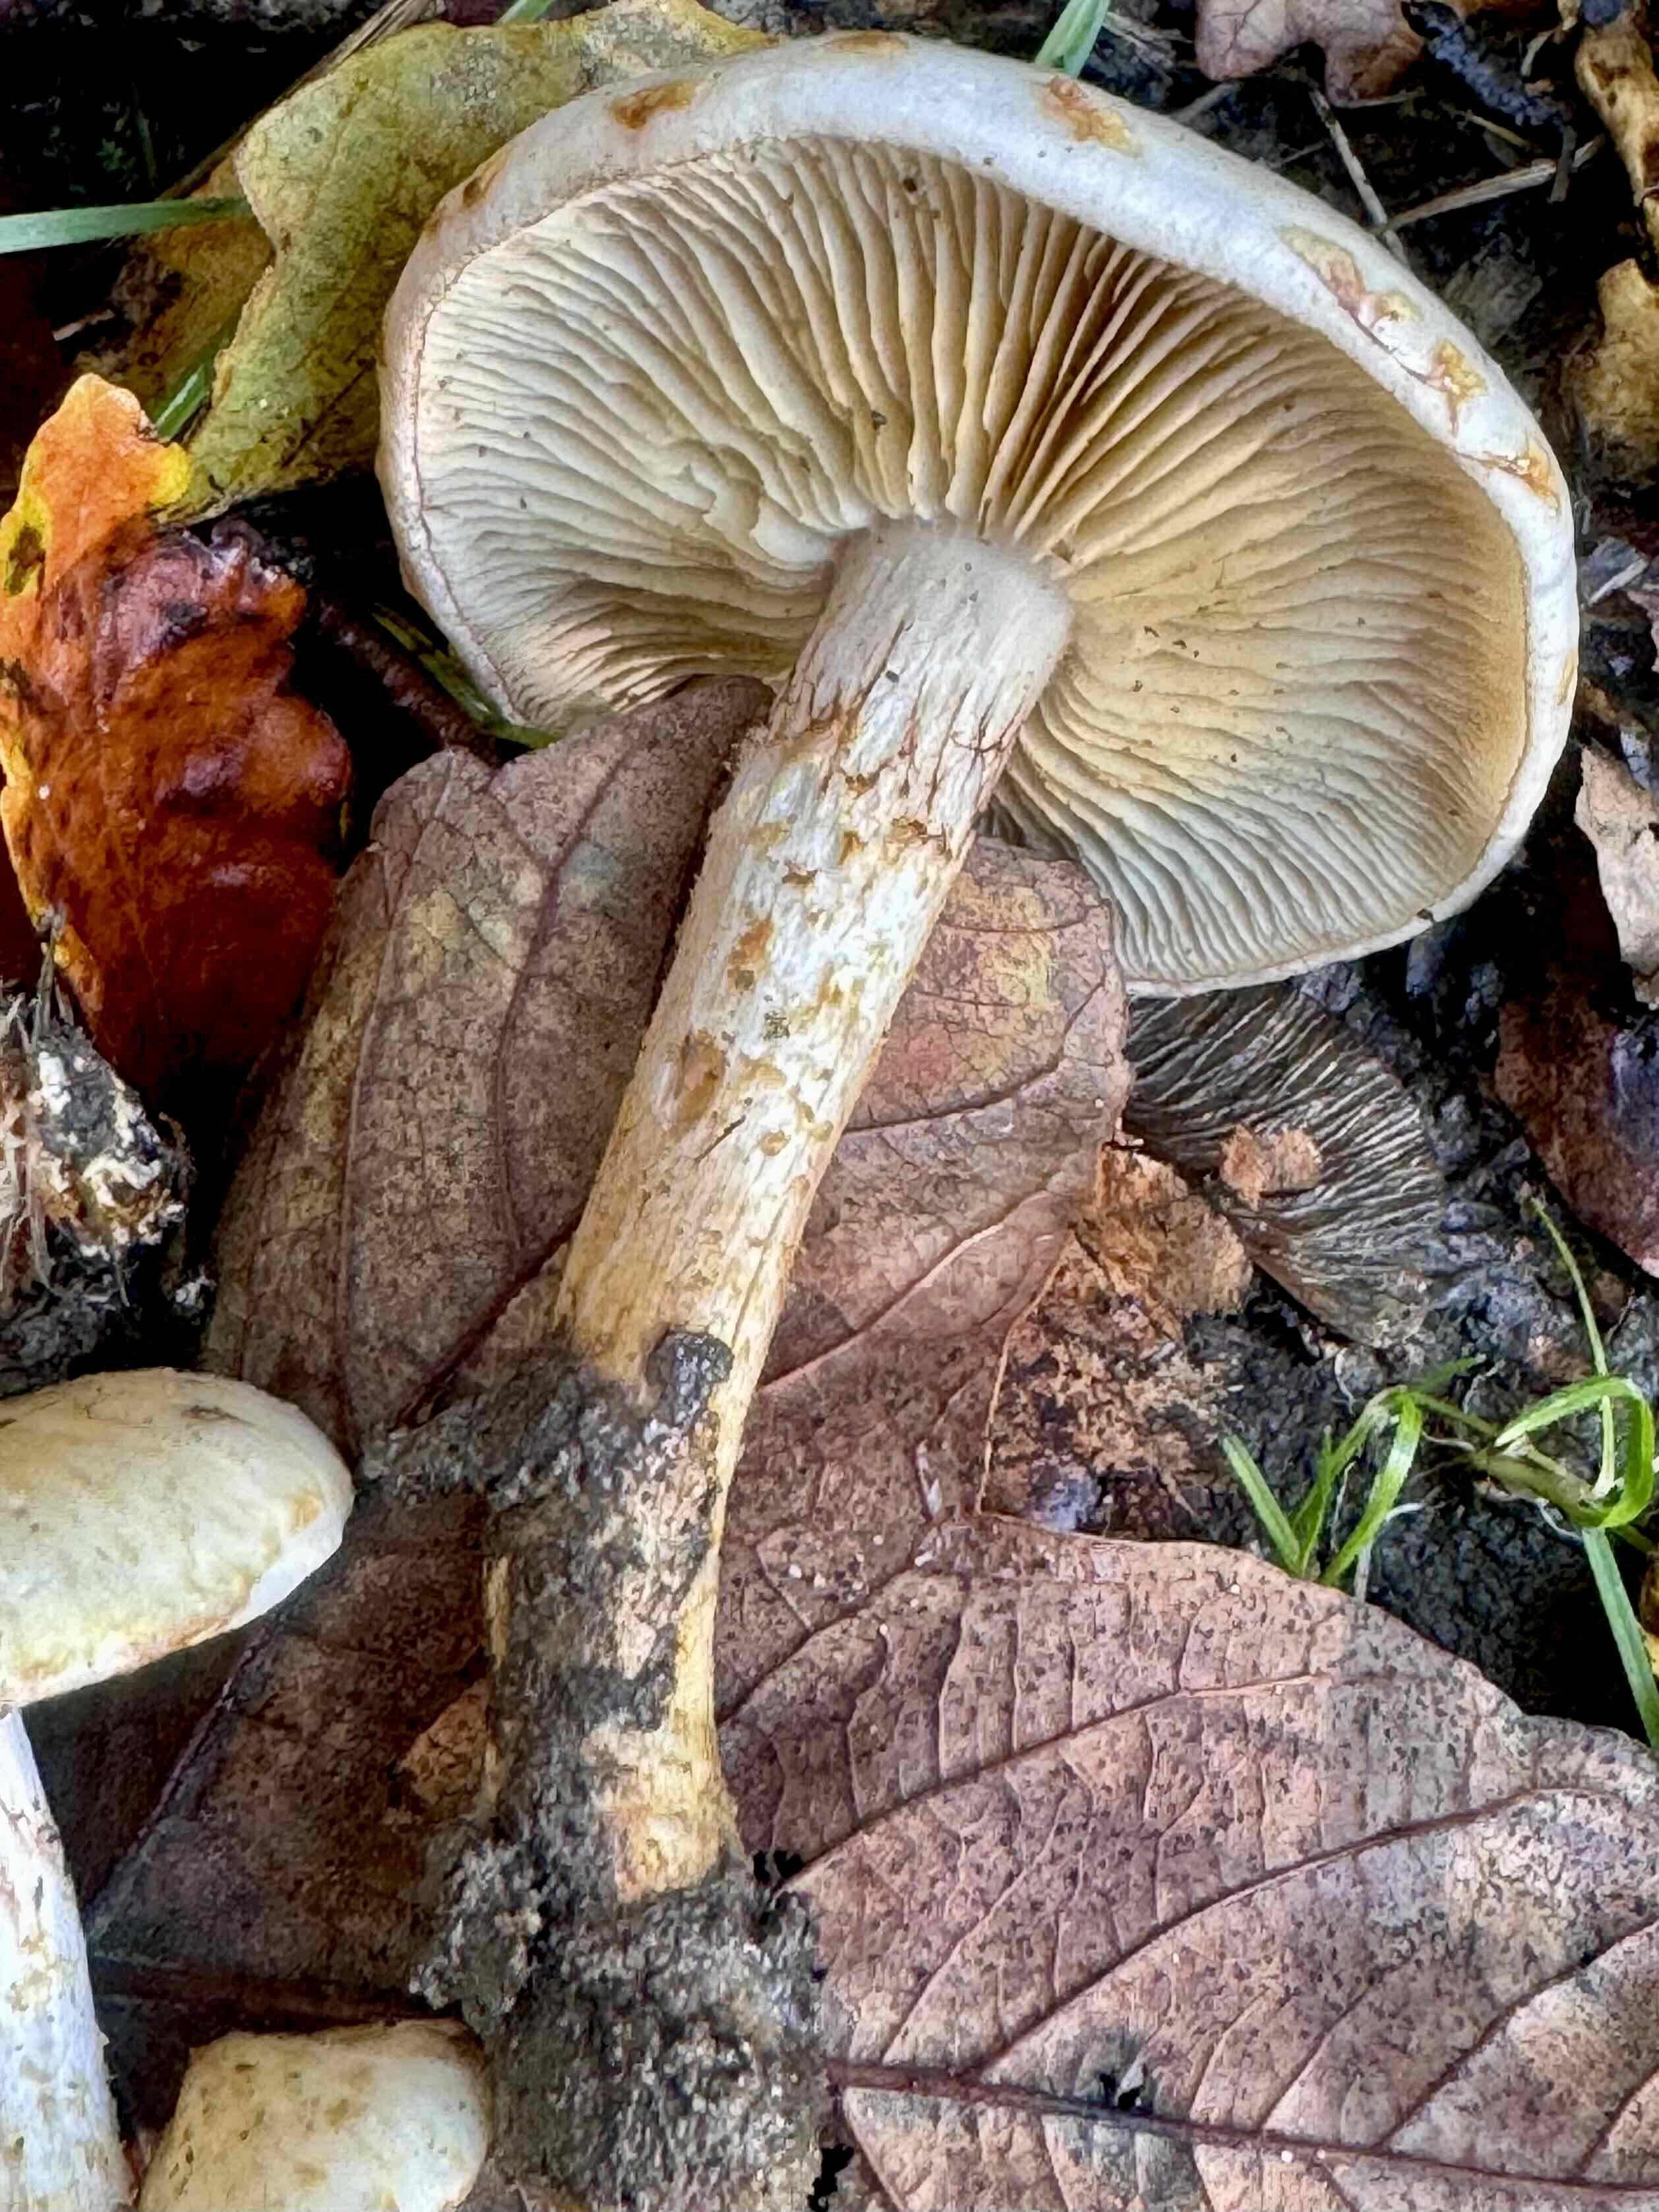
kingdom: Fungi
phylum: Basidiomycota
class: Agaricomycetes
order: Agaricales
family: Strophariaceae
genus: Pholiota
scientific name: Pholiota gummosa
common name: grøngul skælhat
